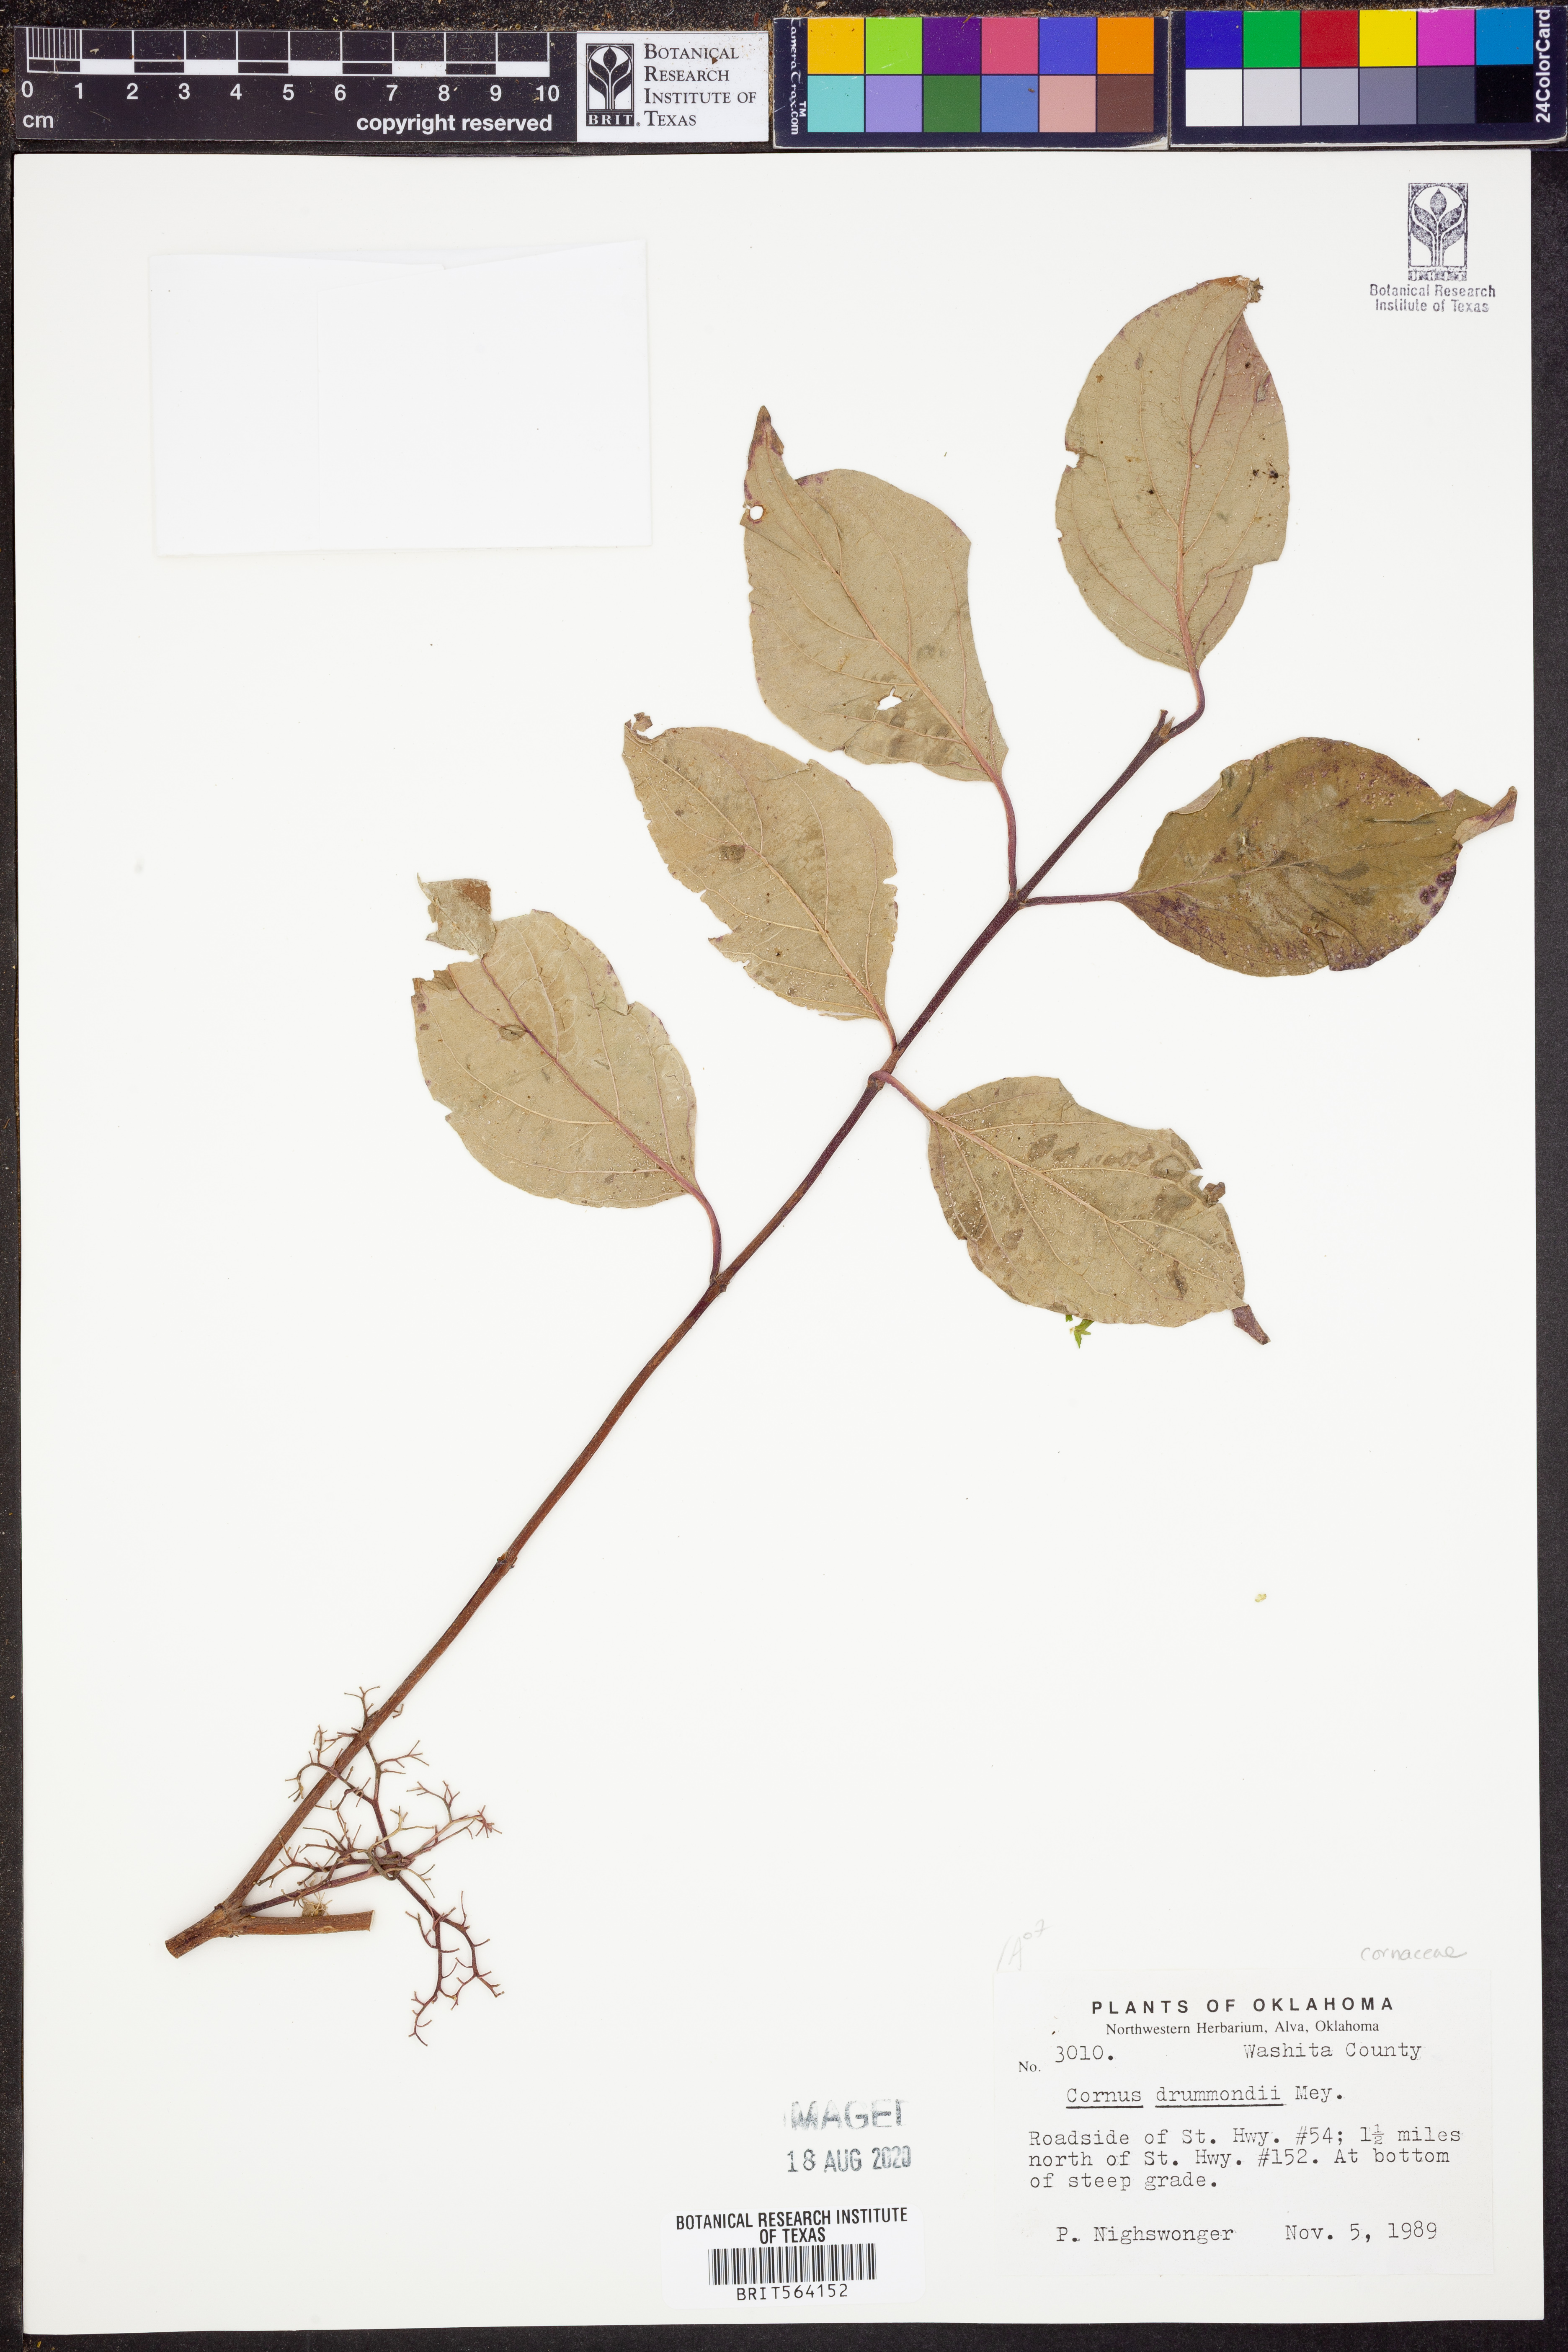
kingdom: Plantae
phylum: Tracheophyta
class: Magnoliopsida
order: Cornales
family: Cornaceae
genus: Cornus
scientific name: Cornus drummondii
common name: Rough-leaf dogwood
